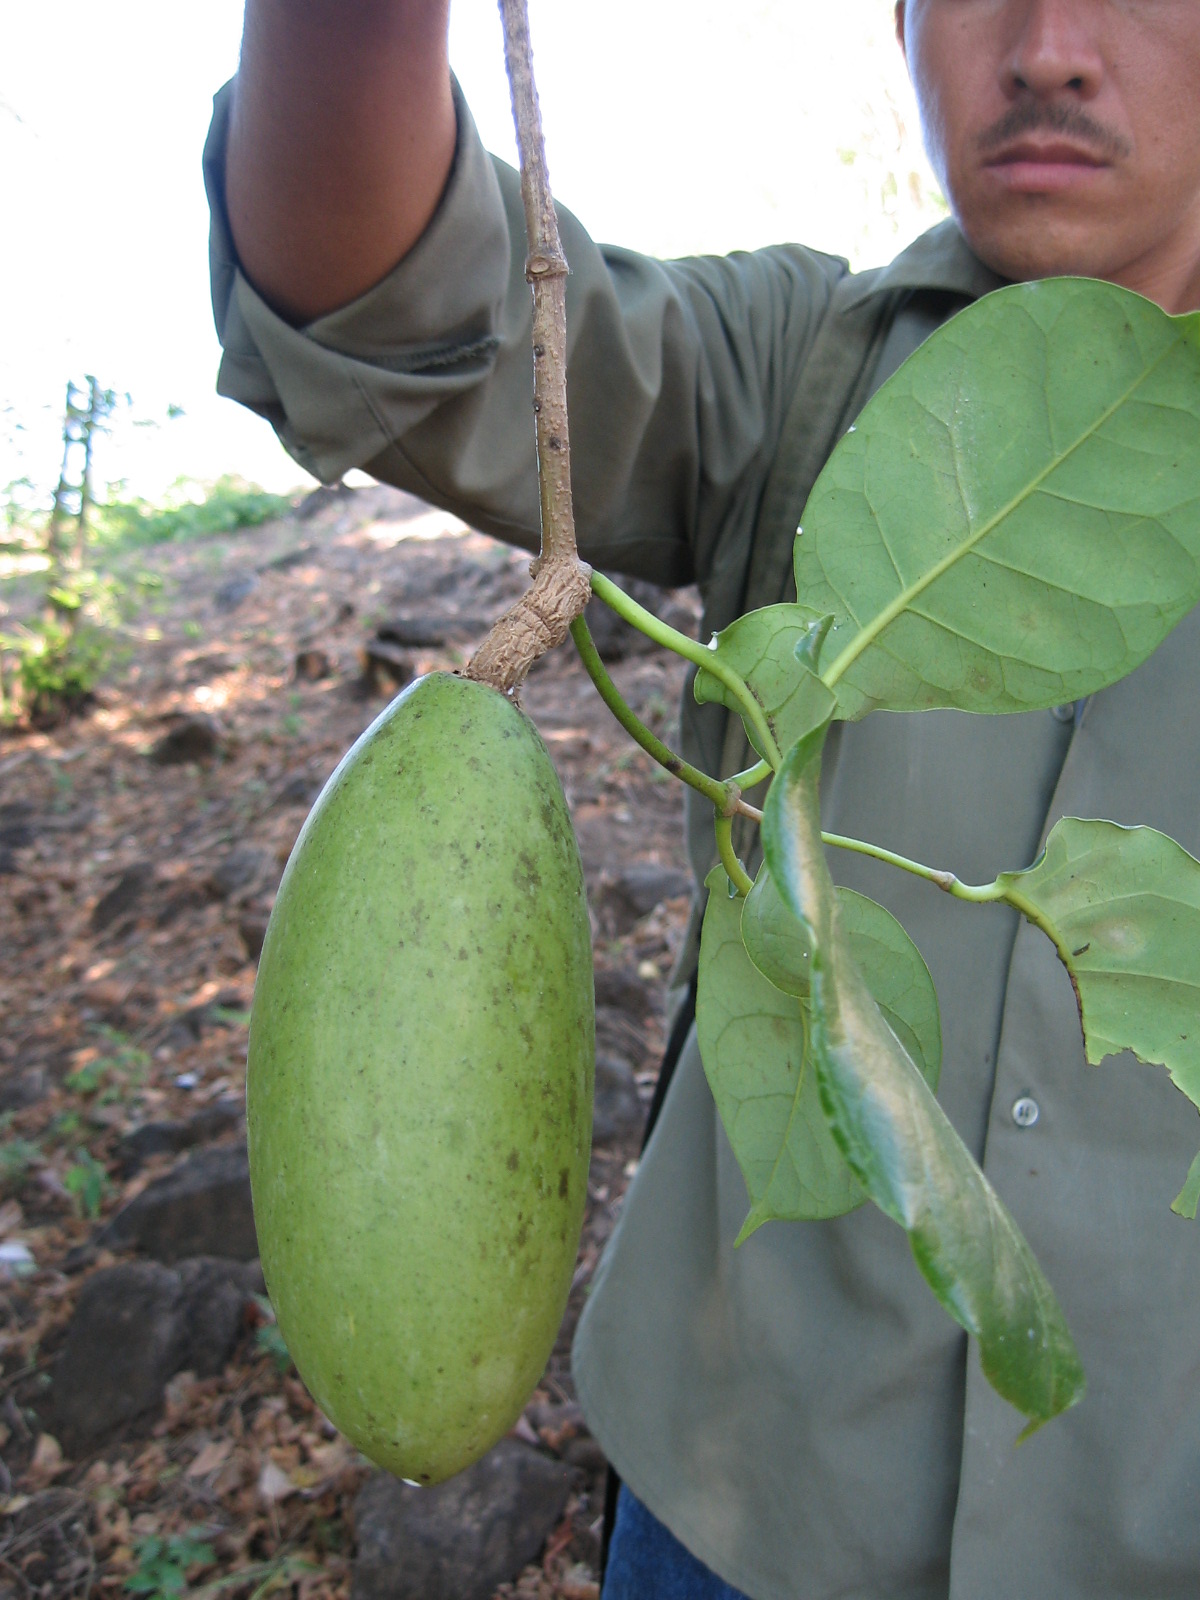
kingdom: Plantae
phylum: Tracheophyta
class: Magnoliopsida
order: Gentianales
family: Apocynaceae
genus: Ruehssia
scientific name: Ruehssia veronicae
